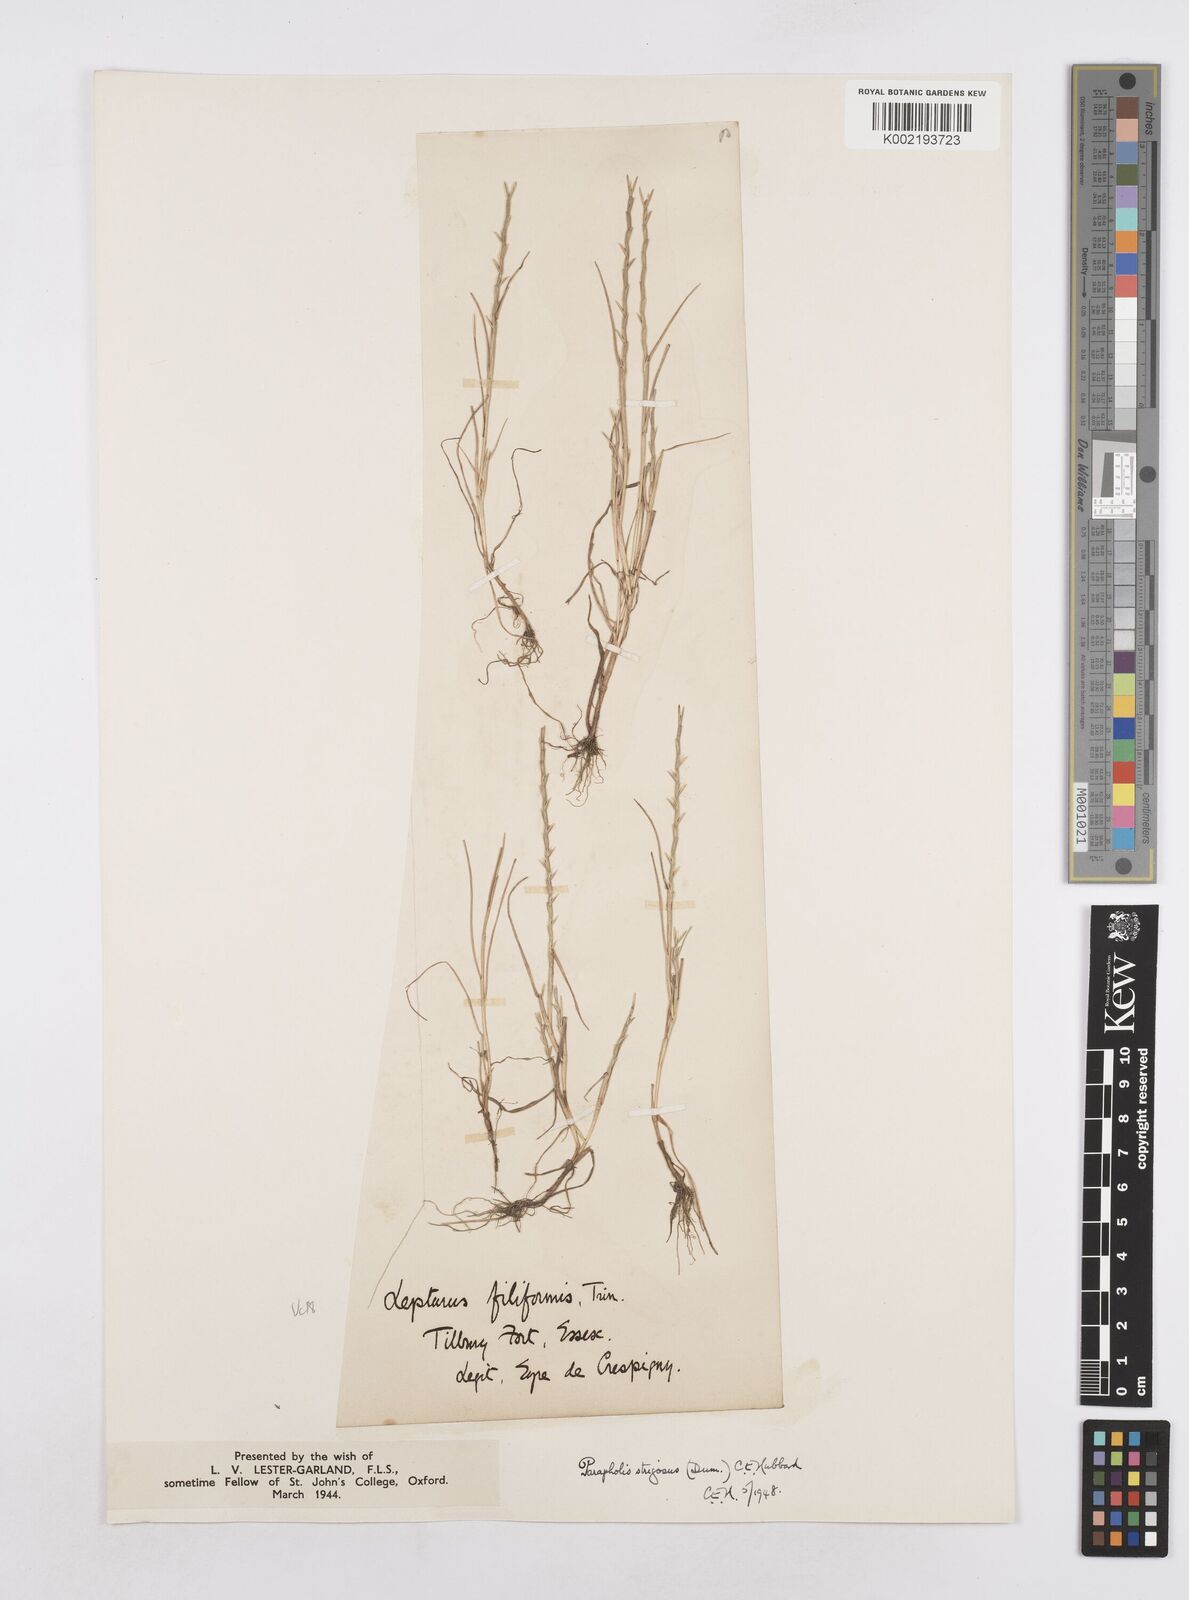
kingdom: Plantae
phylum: Tracheophyta
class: Liliopsida
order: Poales
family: Poaceae
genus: Parapholis
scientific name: Parapholis strigosa
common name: Hard-grass
